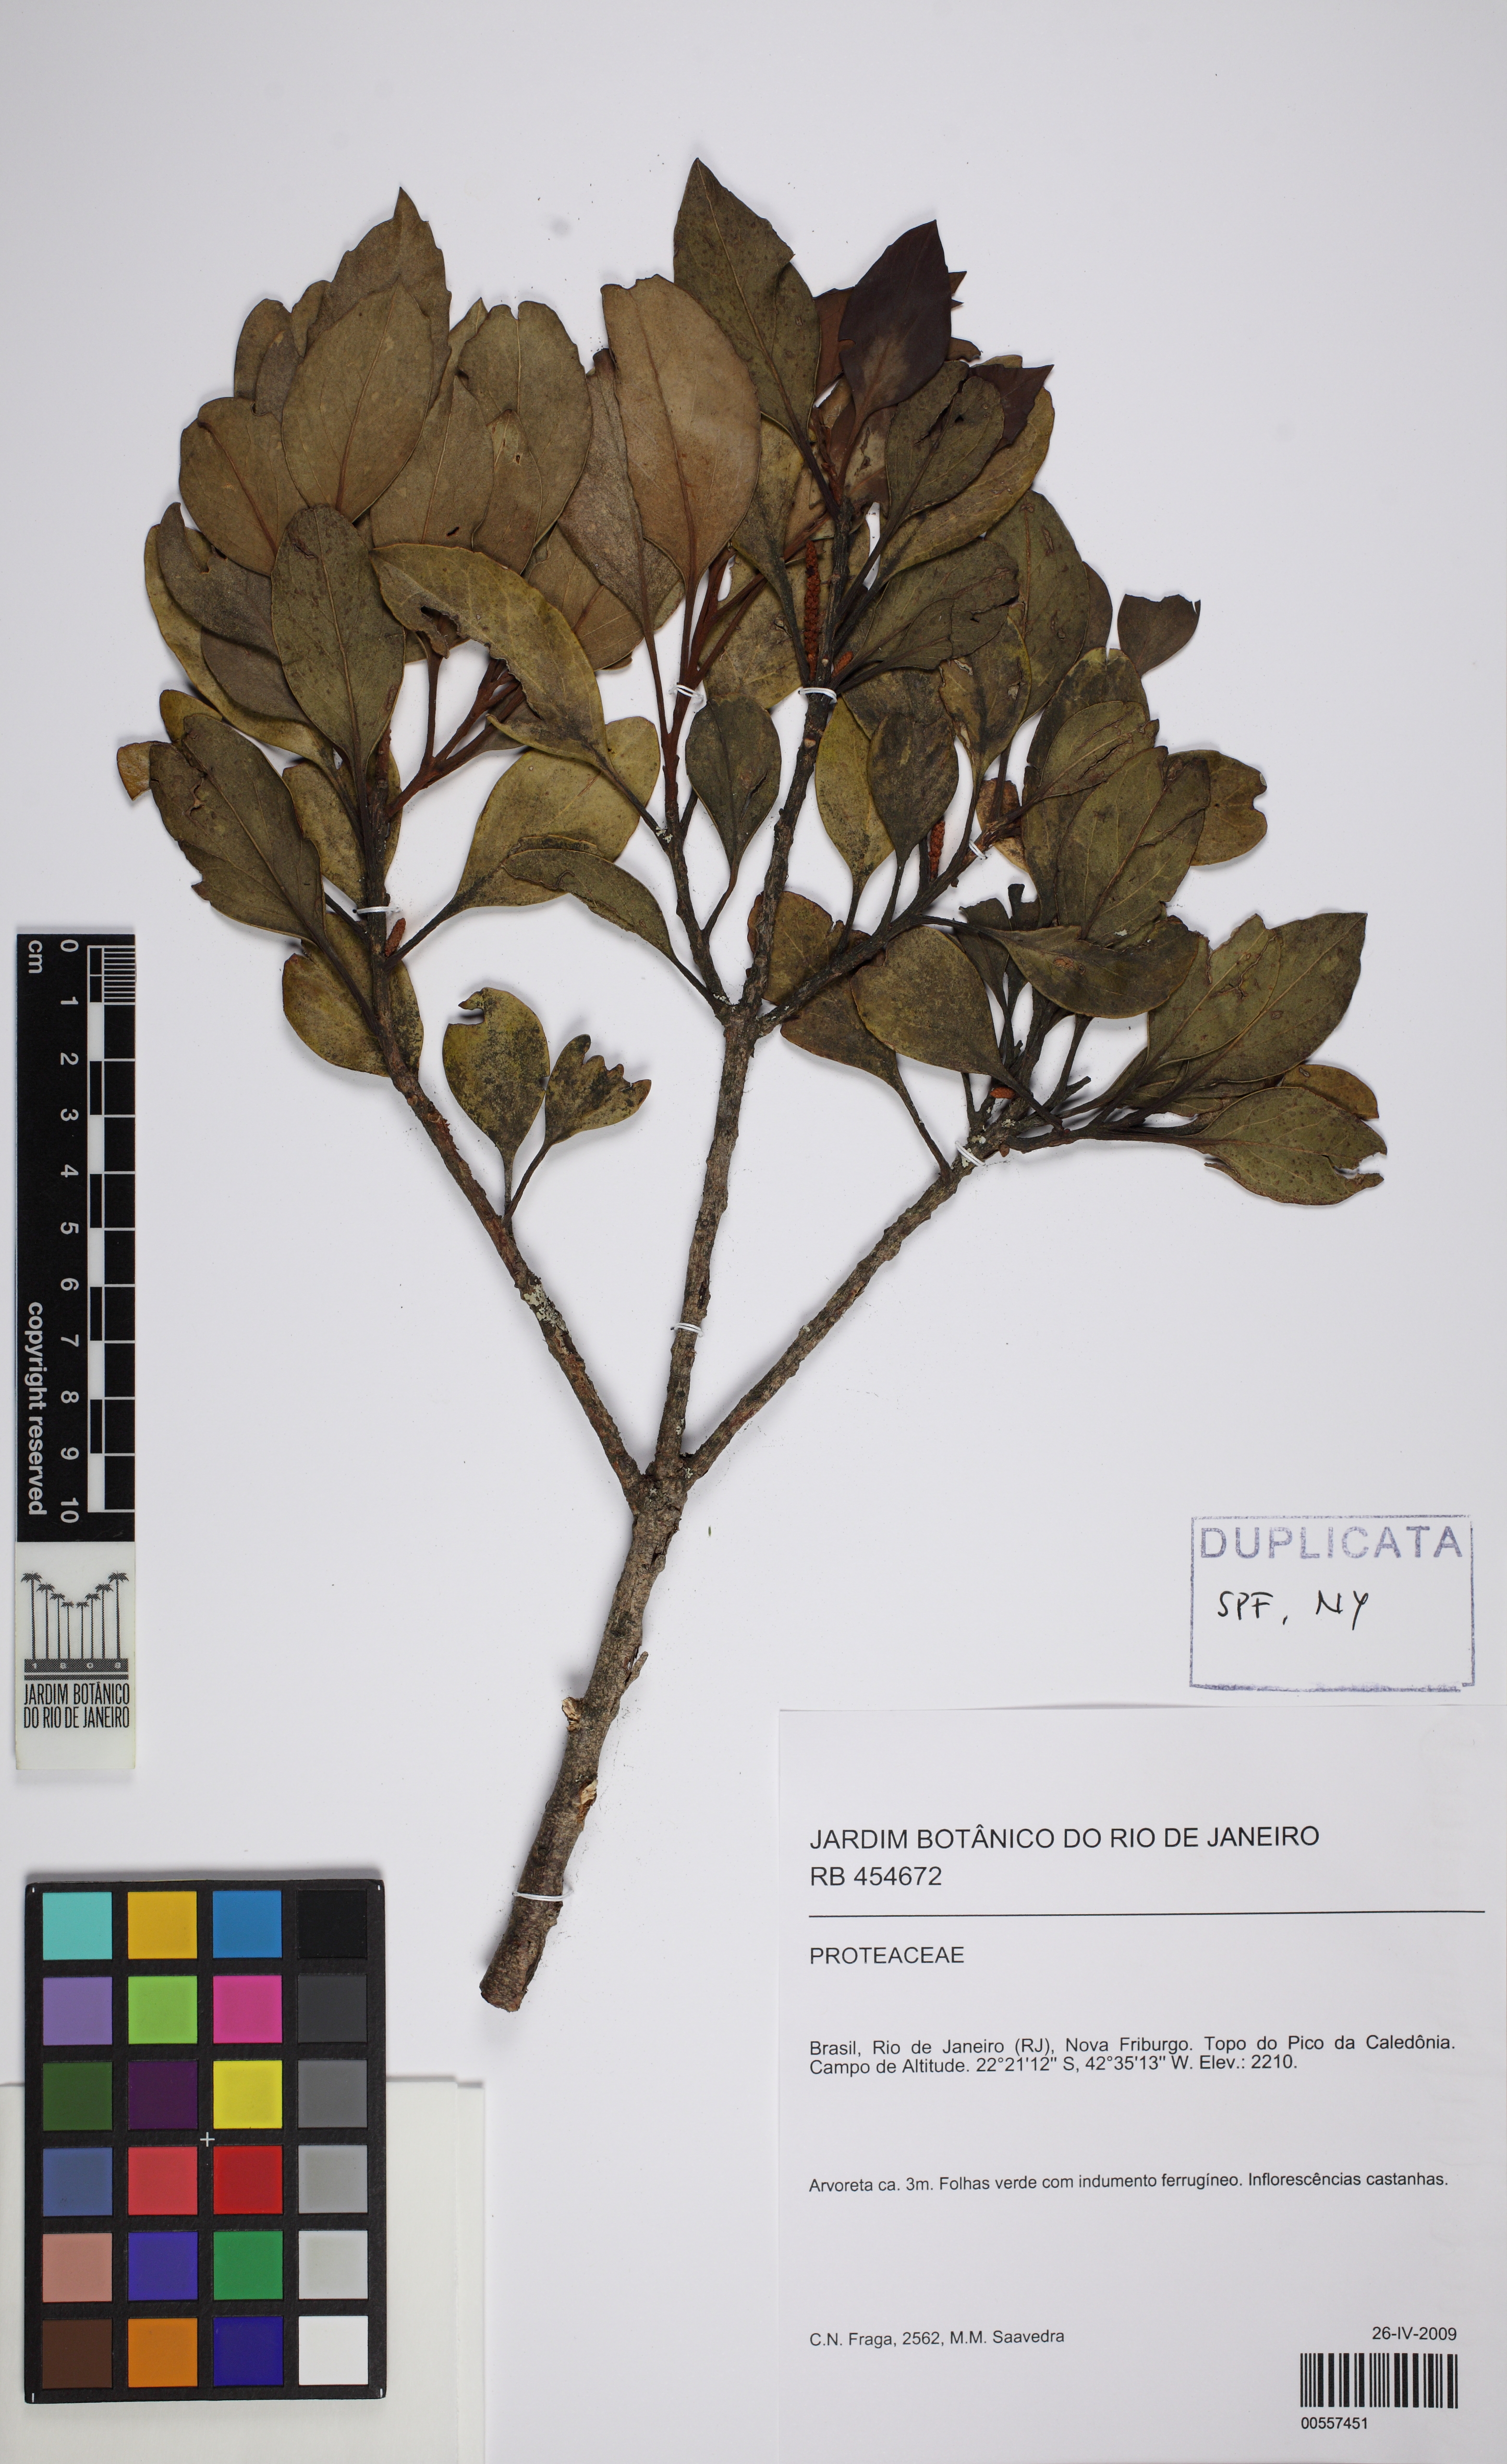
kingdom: Plantae
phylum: Tracheophyta
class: Magnoliopsida
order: Proteales
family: Proteaceae
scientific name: Proteaceae
